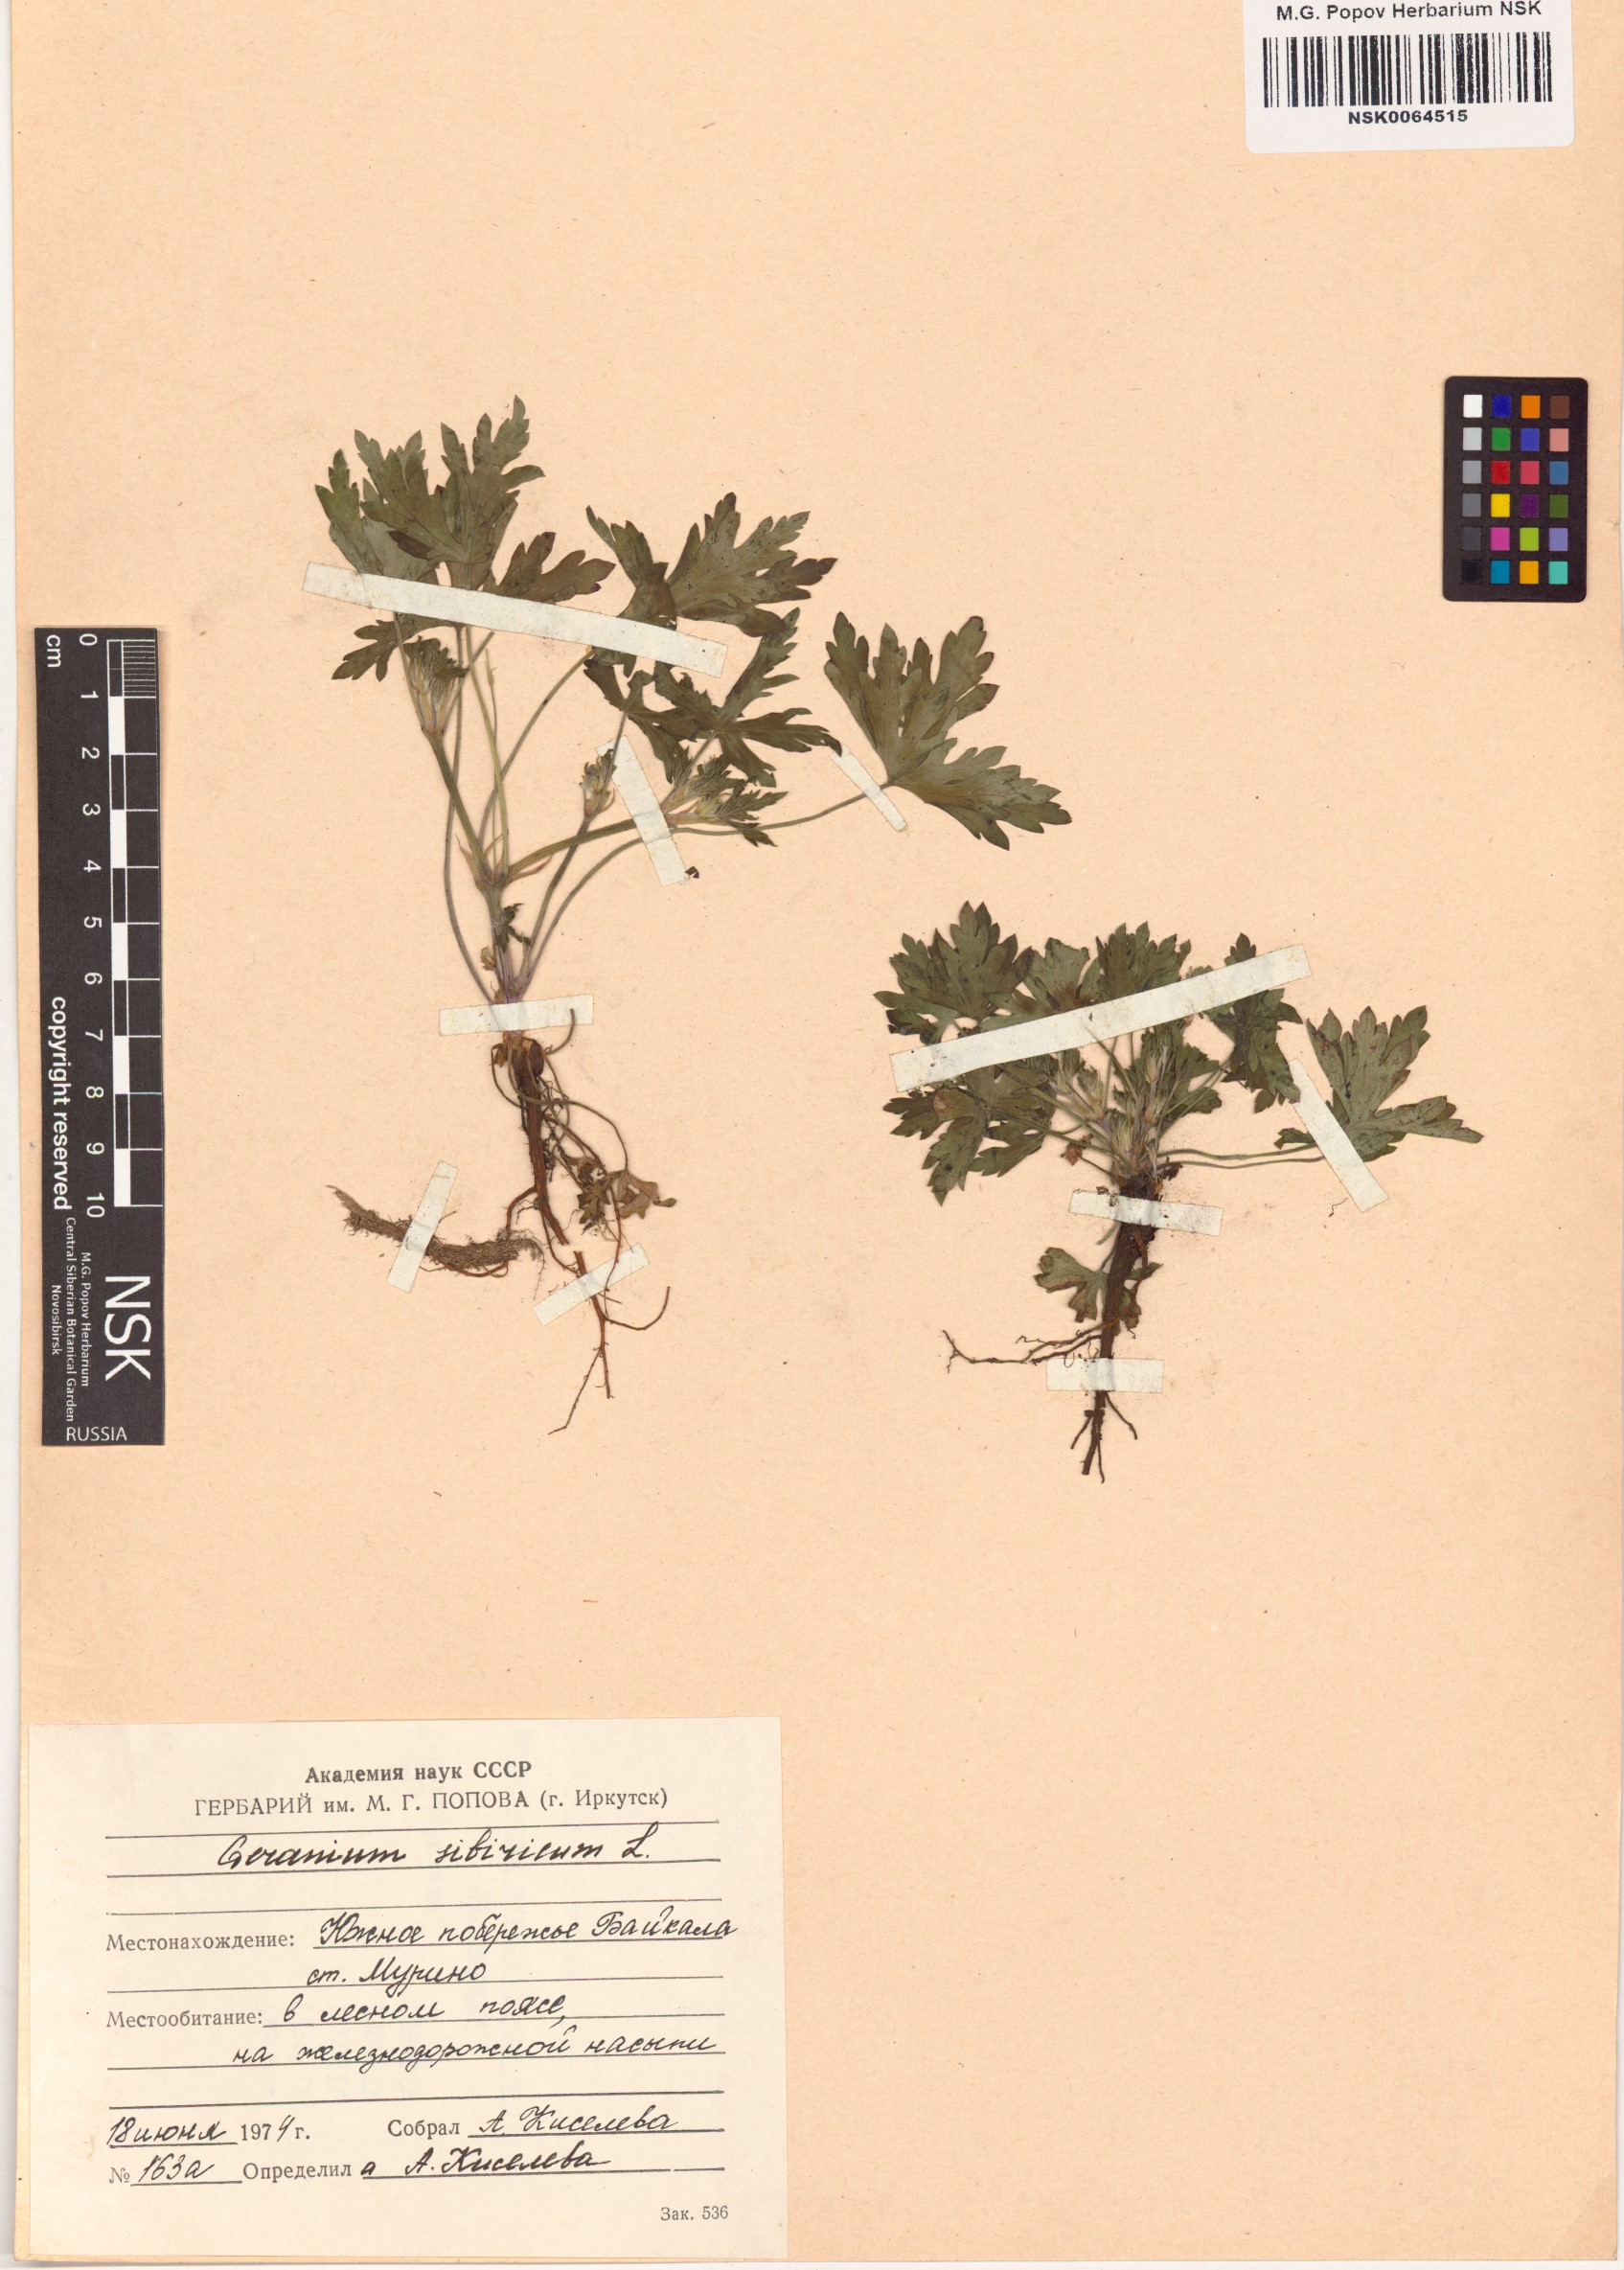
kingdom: Plantae
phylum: Tracheophyta
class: Magnoliopsida
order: Geraniales
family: Geraniaceae
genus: Geranium
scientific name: Geranium sibiricum
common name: Siberian crane's-bill
